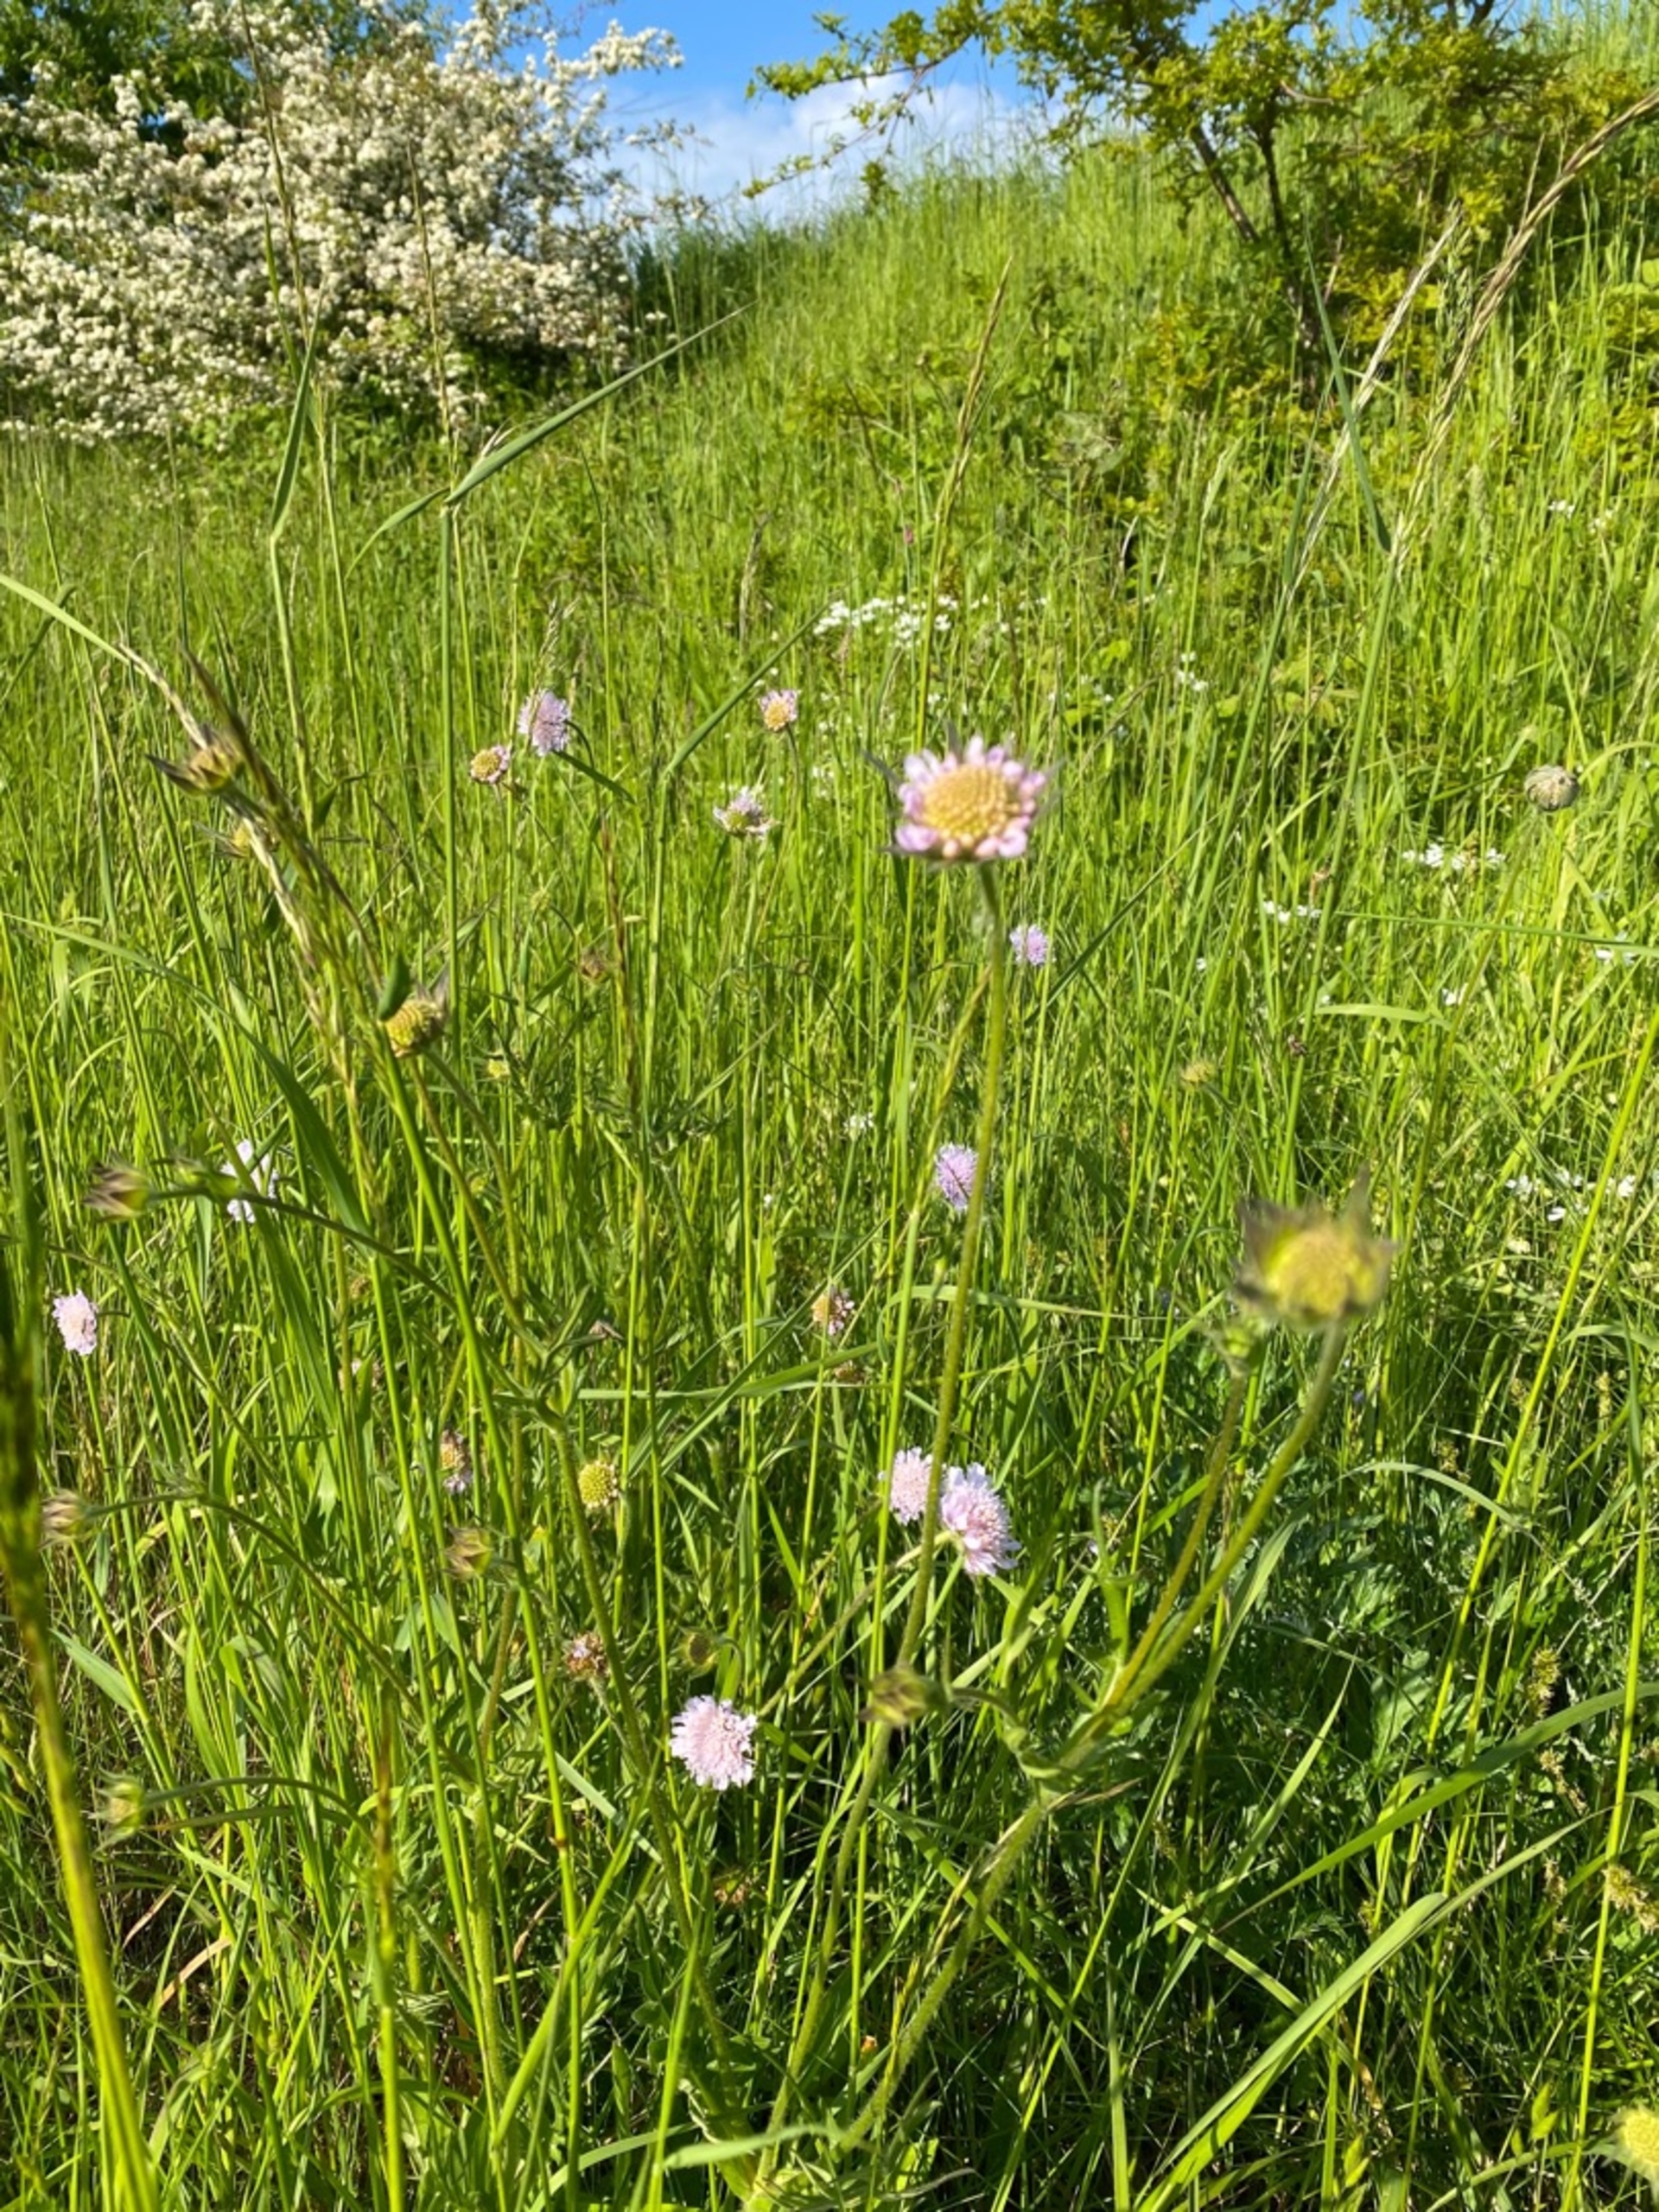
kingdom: Plantae
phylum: Tracheophyta
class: Magnoliopsida
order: Dipsacales
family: Caprifoliaceae
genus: Knautia
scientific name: Knautia arvensis
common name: Blåhat
